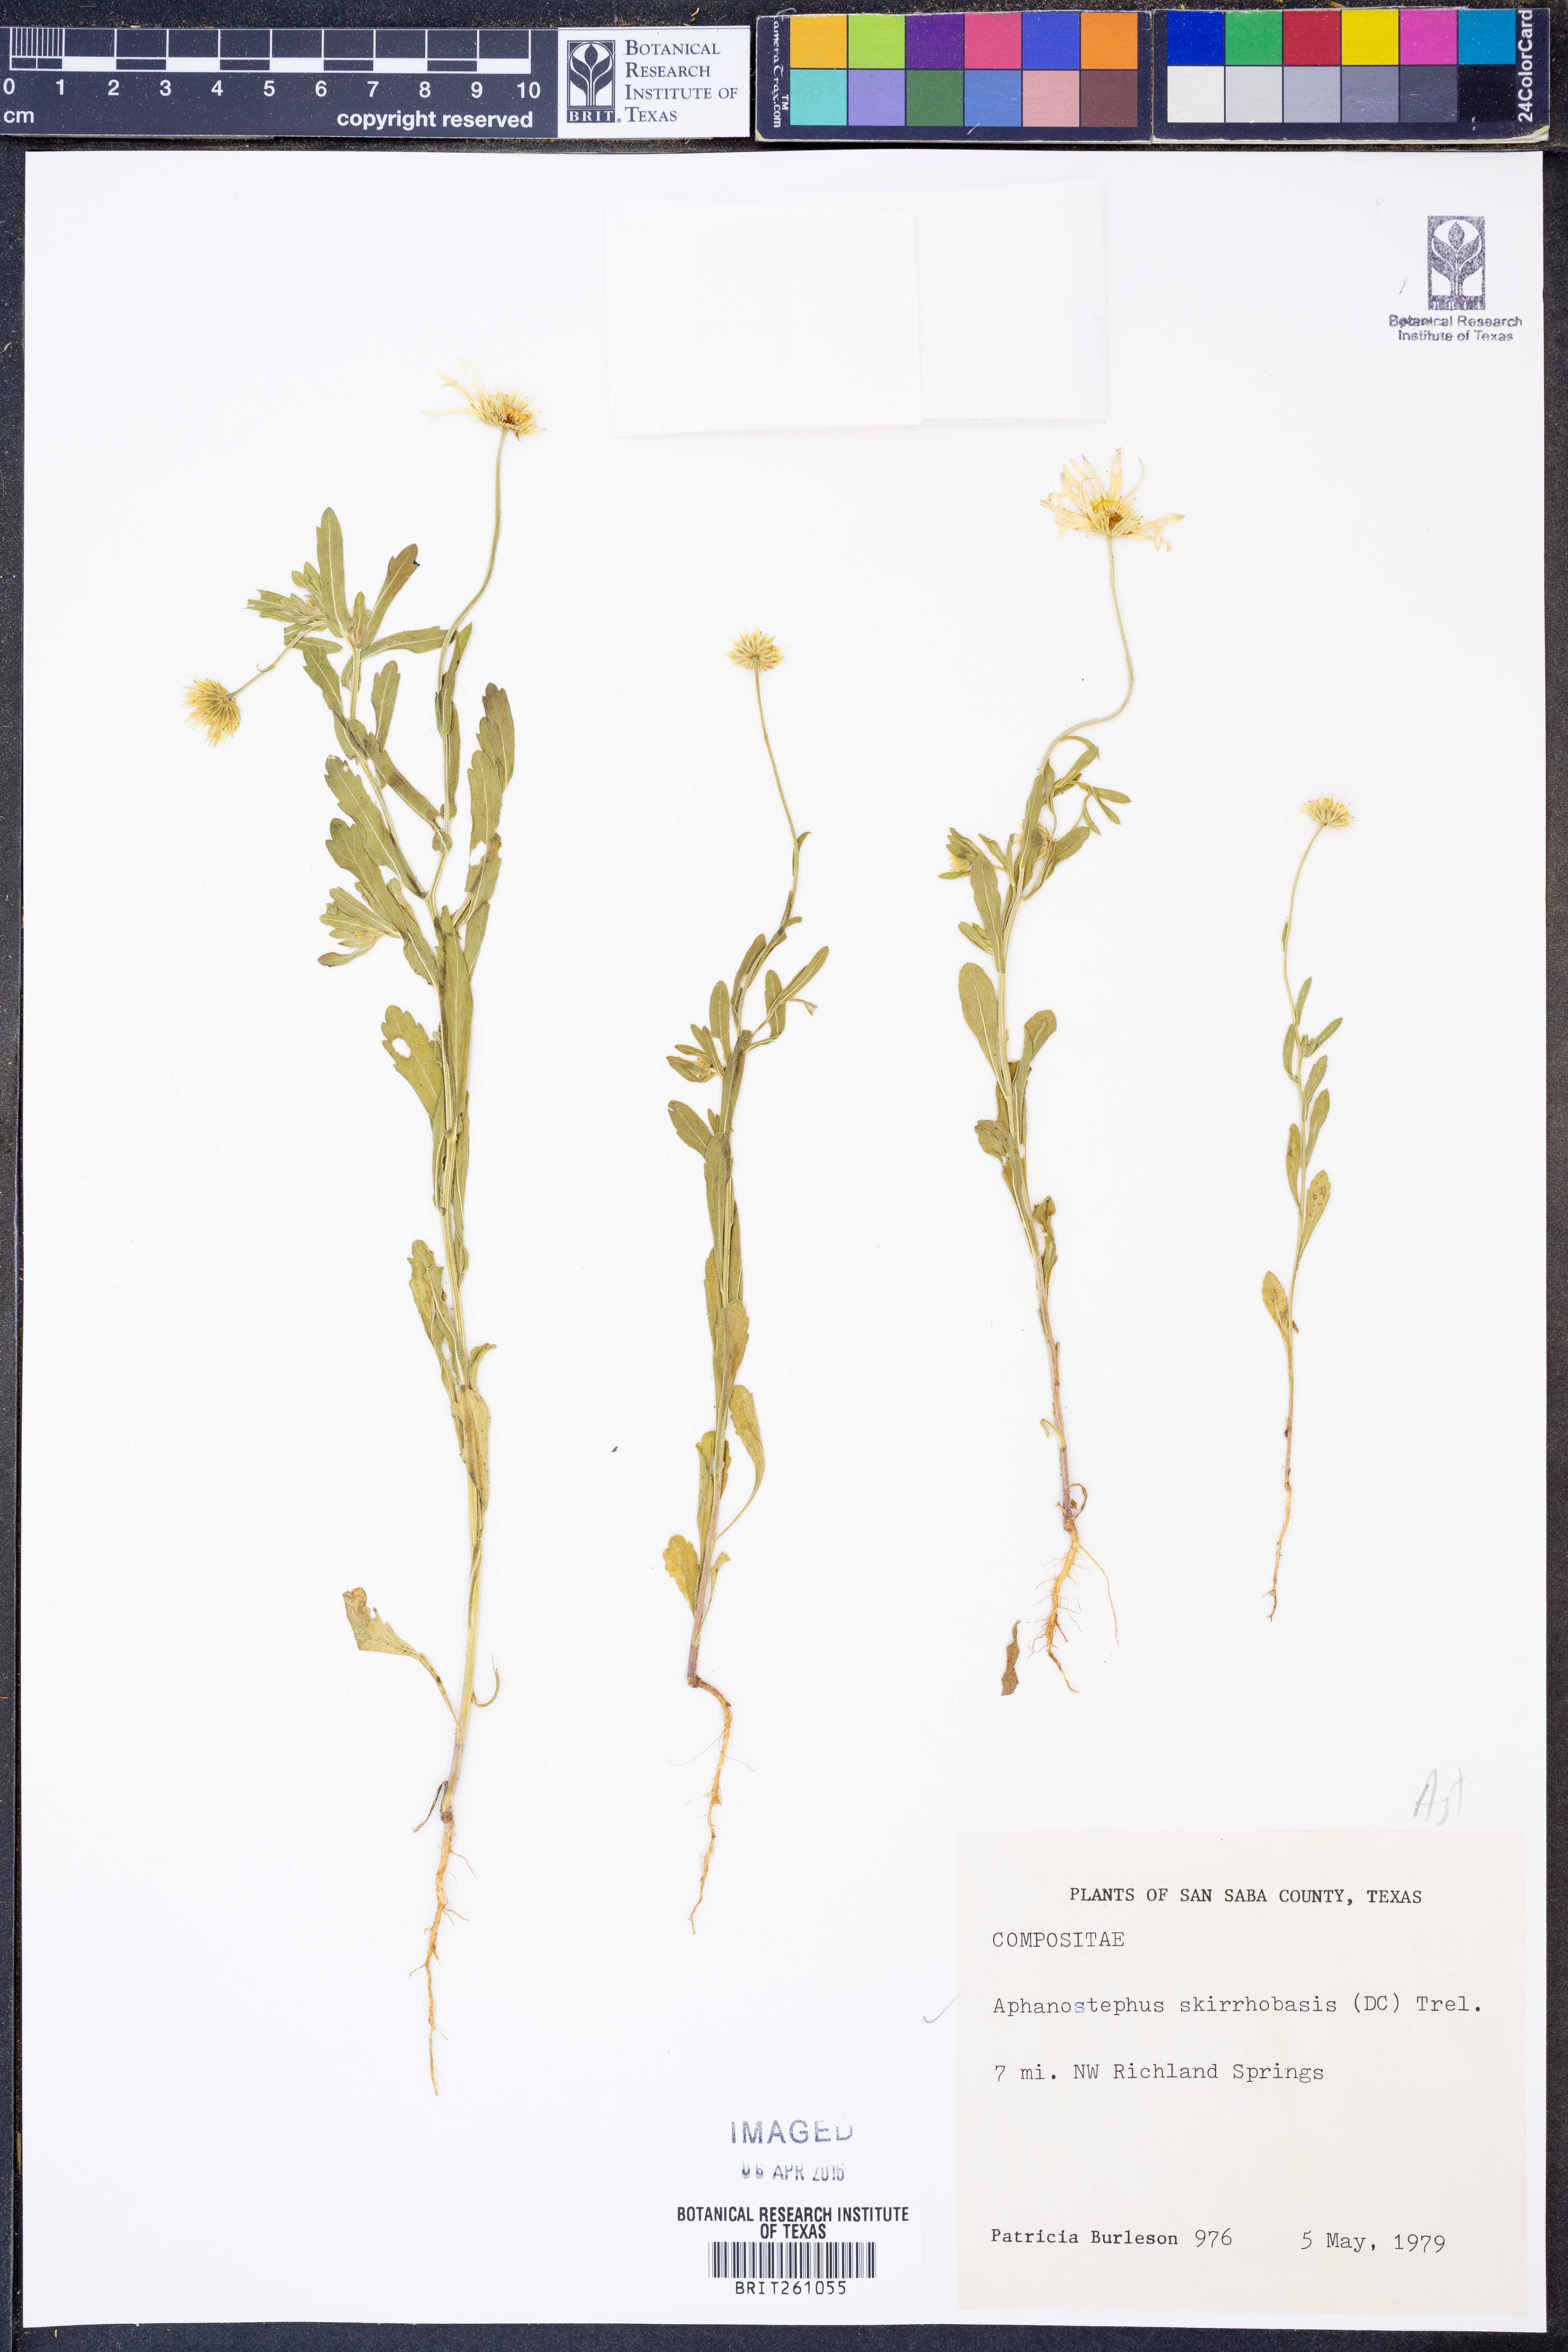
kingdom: Plantae
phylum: Tracheophyta
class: Magnoliopsida
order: Asterales
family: Asteraceae
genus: Aphanostephus
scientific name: Aphanostephus skirrhobasis
